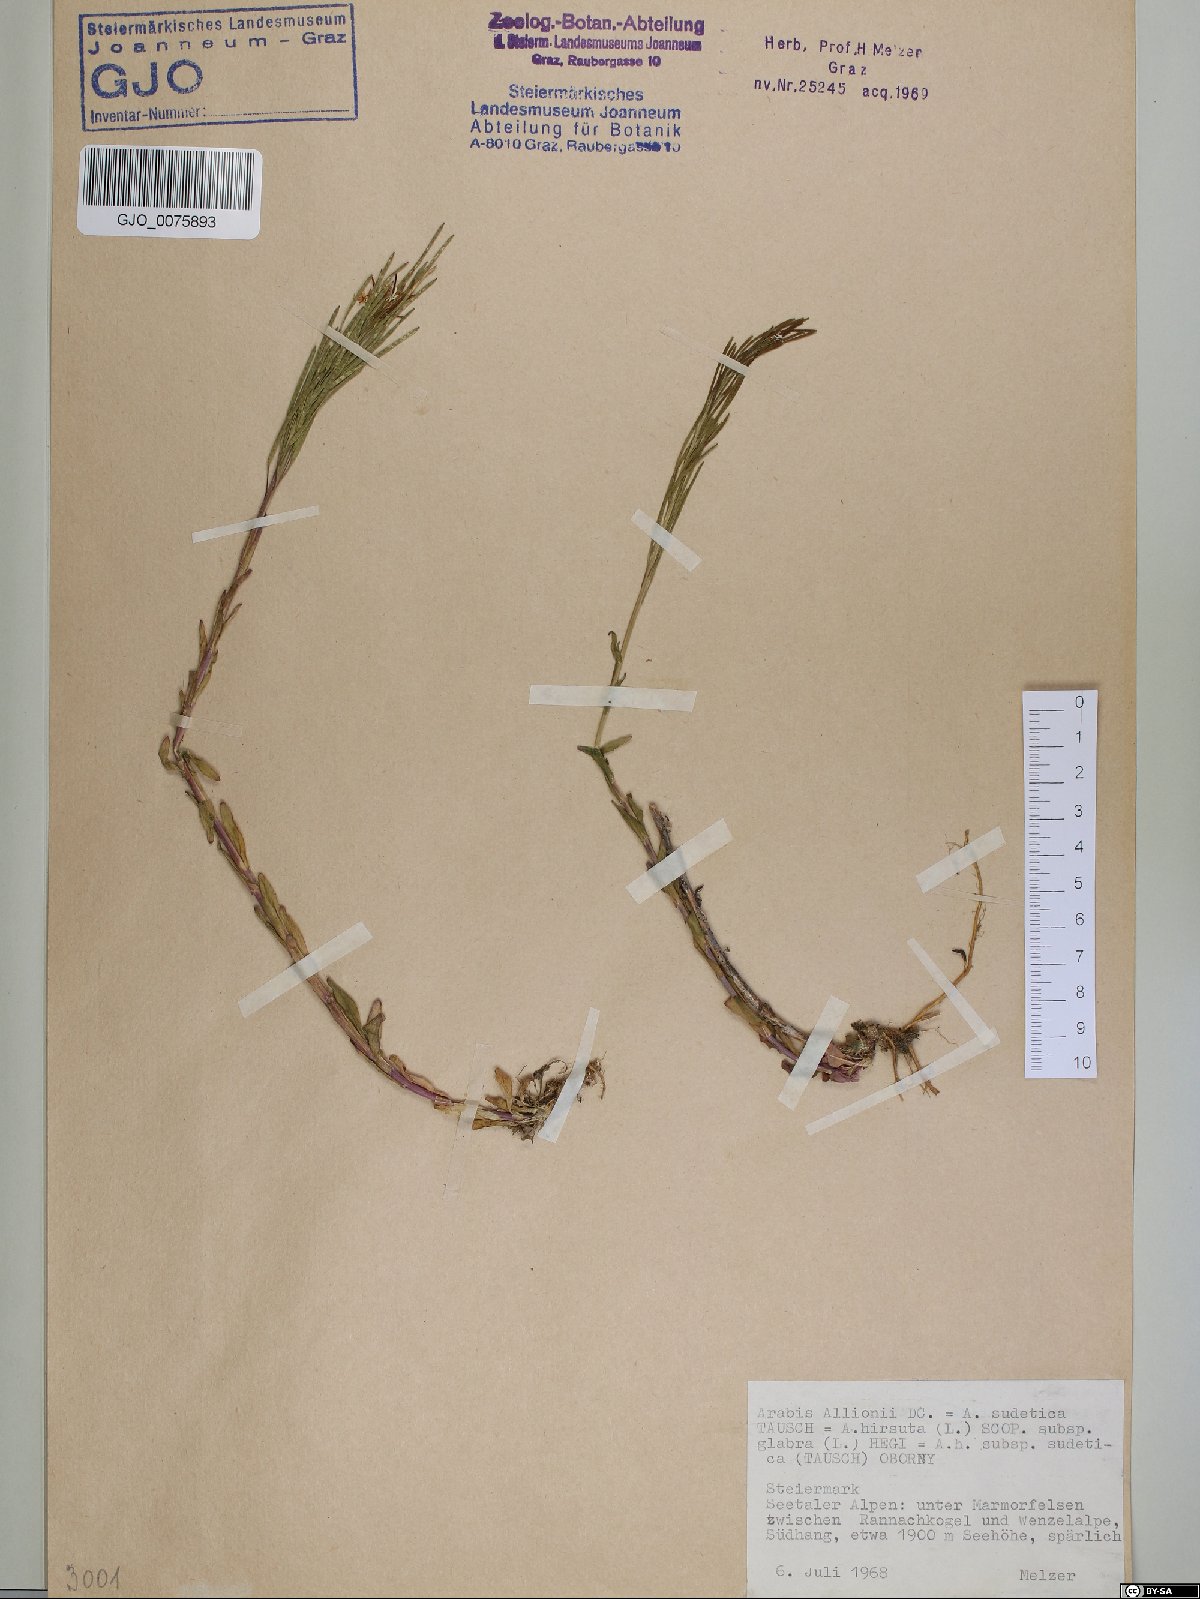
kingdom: Plantae
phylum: Tracheophyta
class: Magnoliopsida
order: Brassicales
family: Brassicaceae
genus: Arabis
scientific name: Arabis allionii
